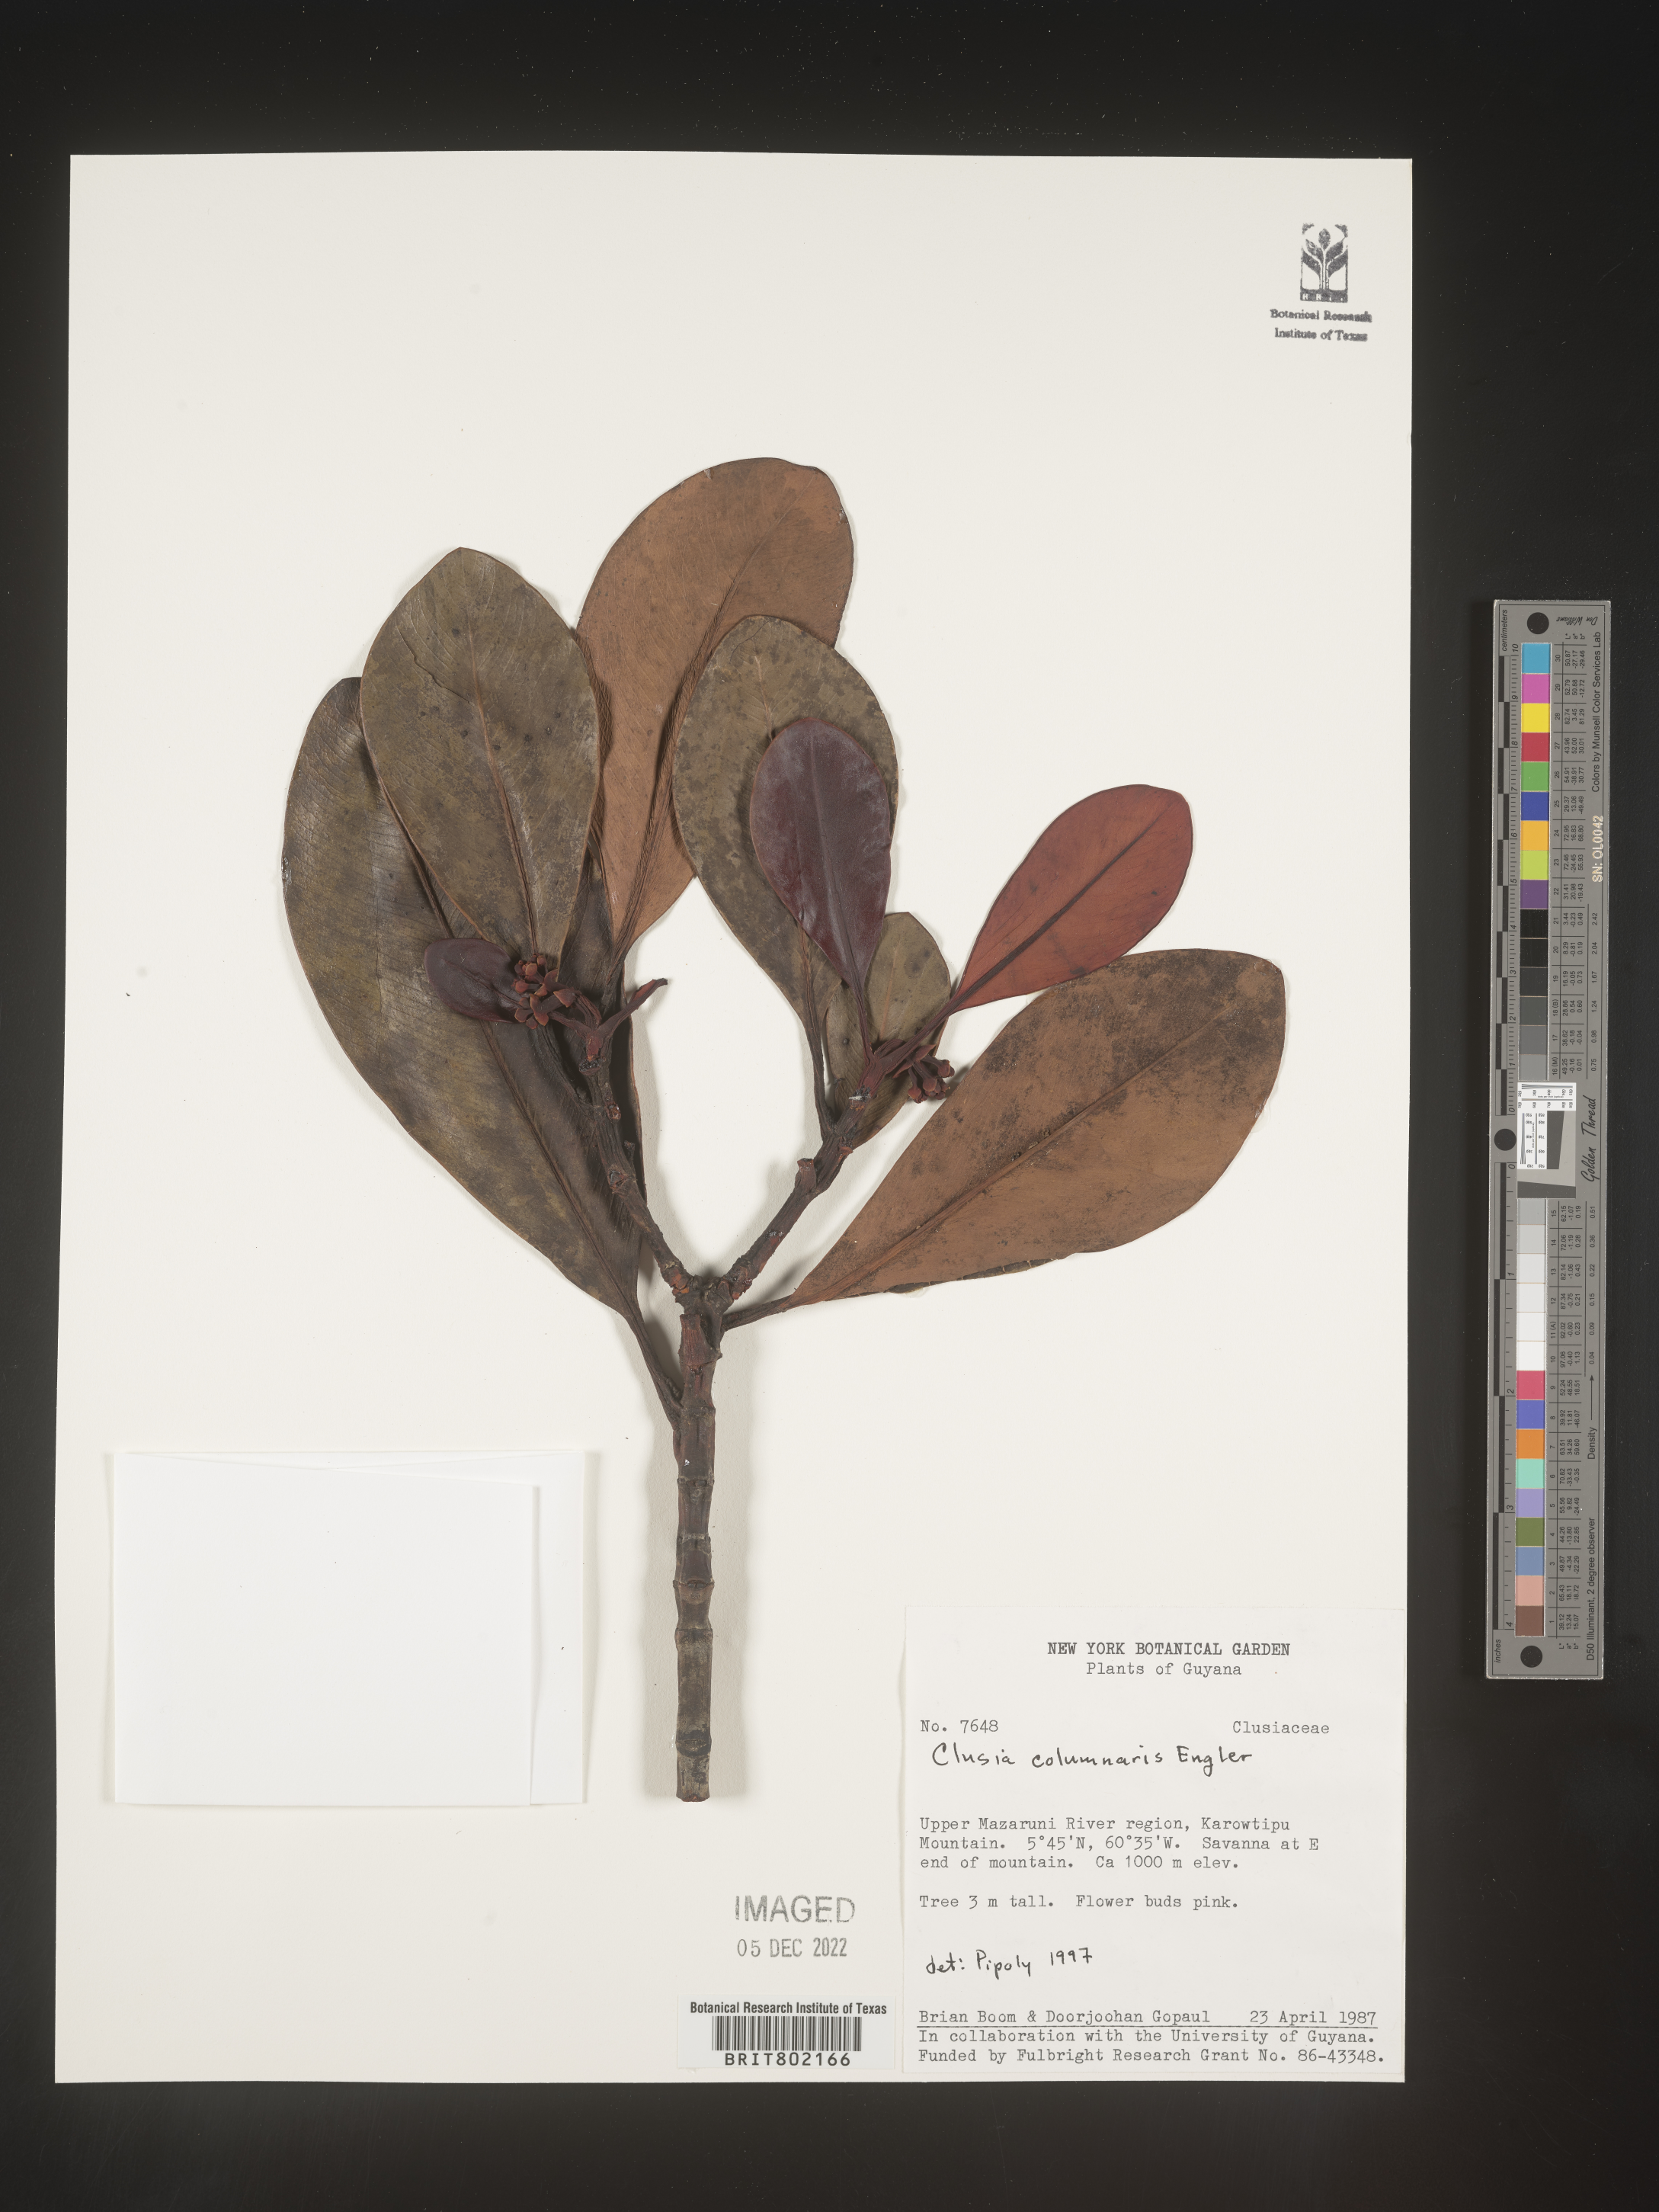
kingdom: Plantae
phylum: Tracheophyta
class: Magnoliopsida
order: Malpighiales
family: Clusiaceae
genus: Clusia
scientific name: Clusia columnaris
